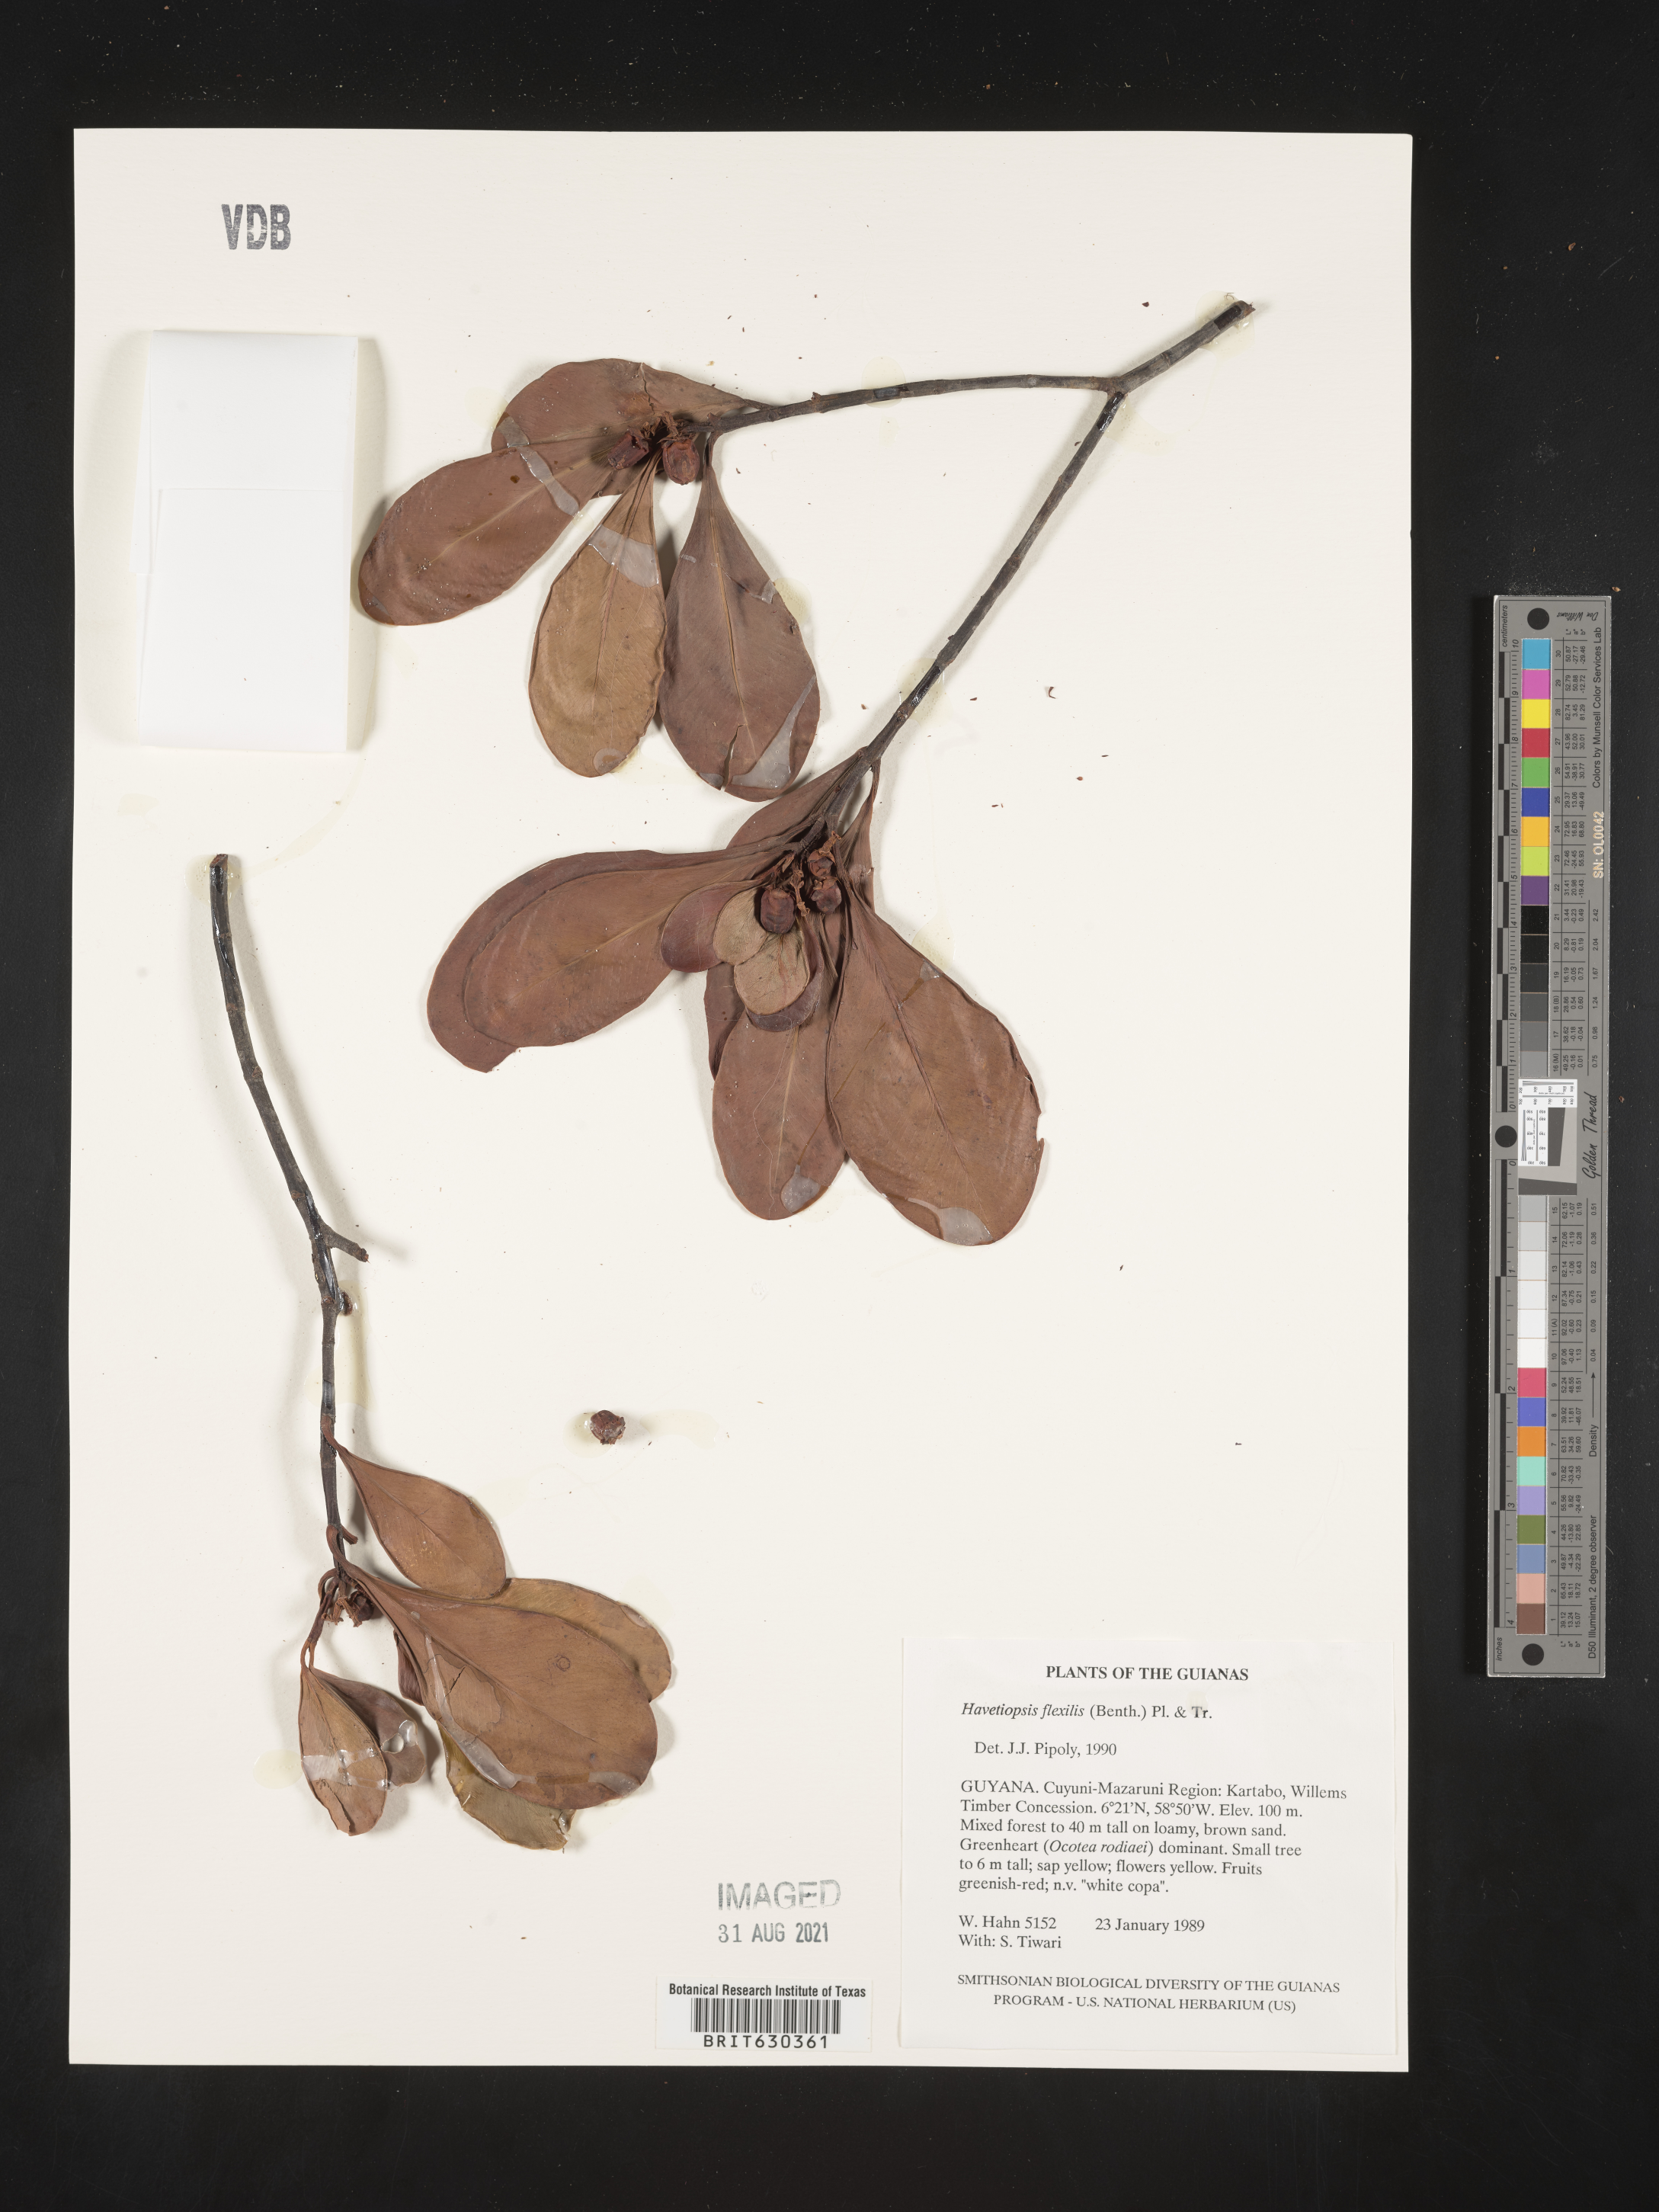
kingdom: Plantae
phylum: Tracheophyta
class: Magnoliopsida
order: Malpighiales
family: Clusiaceae
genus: Clusia
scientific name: Clusia flavida
